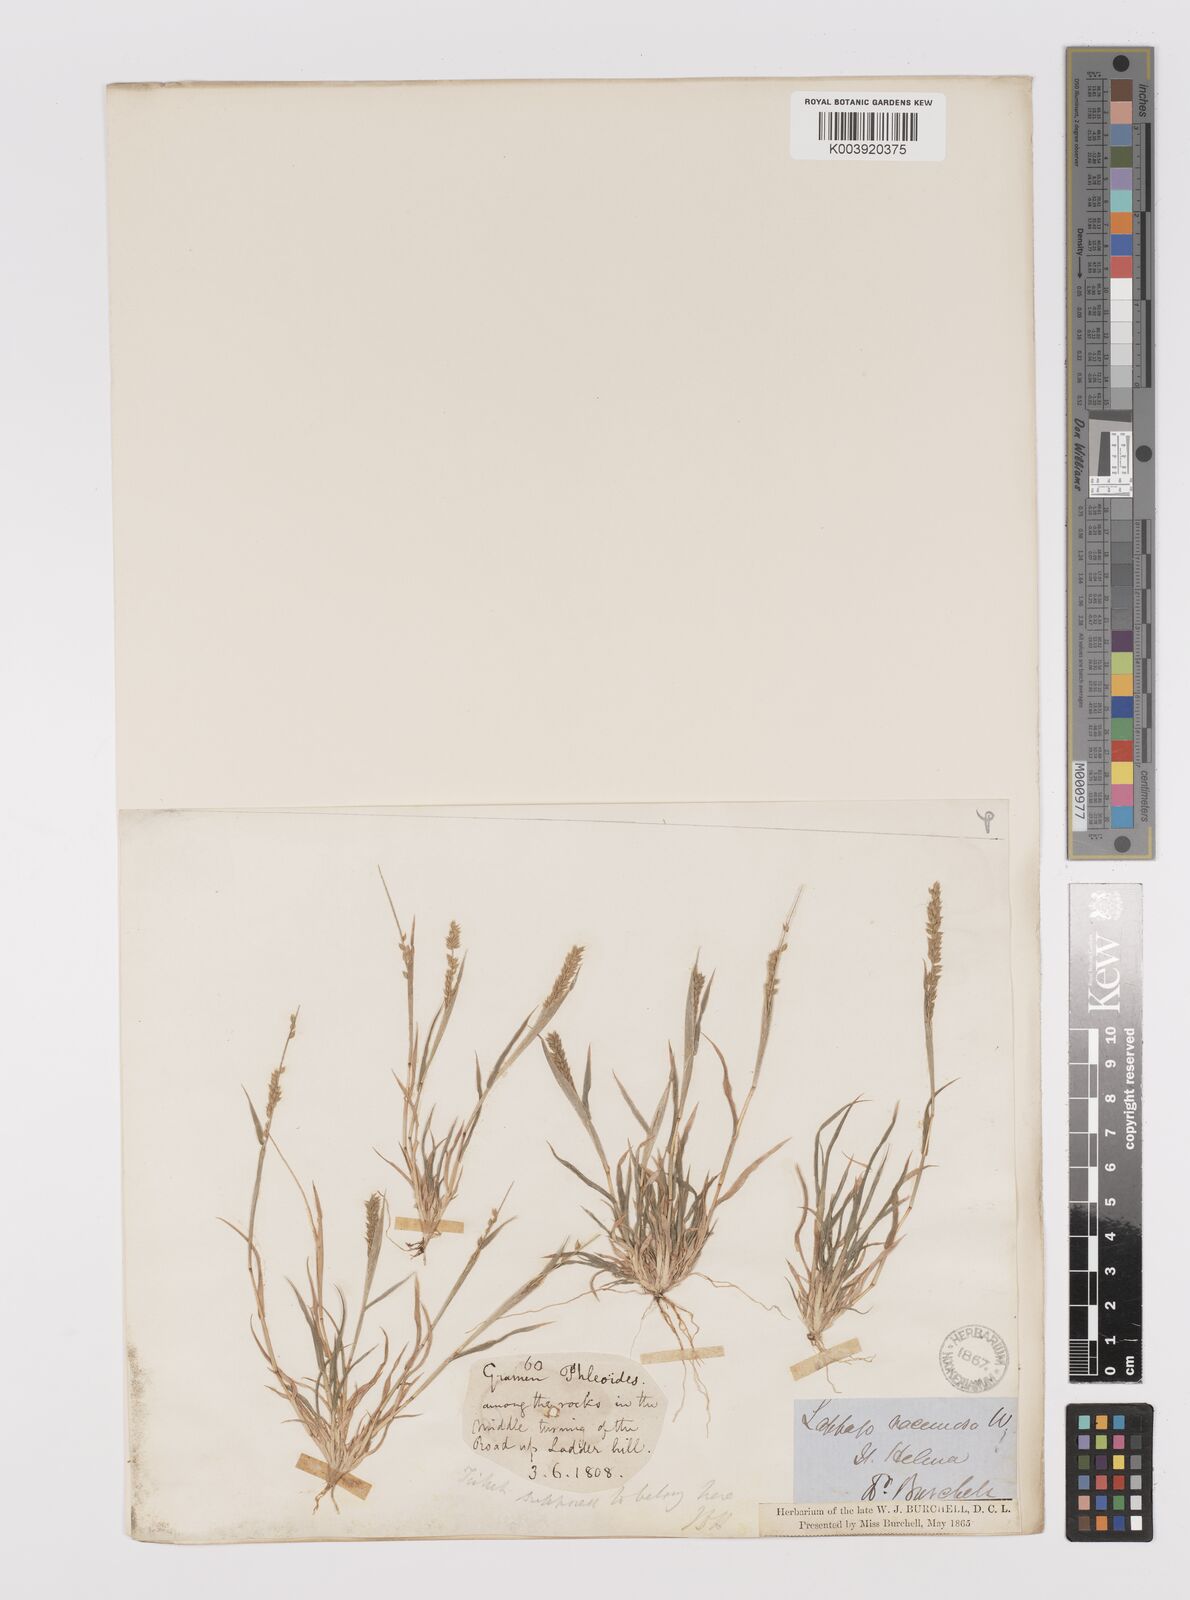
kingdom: Plantae
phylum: Tracheophyta
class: Liliopsida
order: Poales
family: Poaceae
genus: Tragus
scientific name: Tragus berteronianus
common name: African bur-grass
